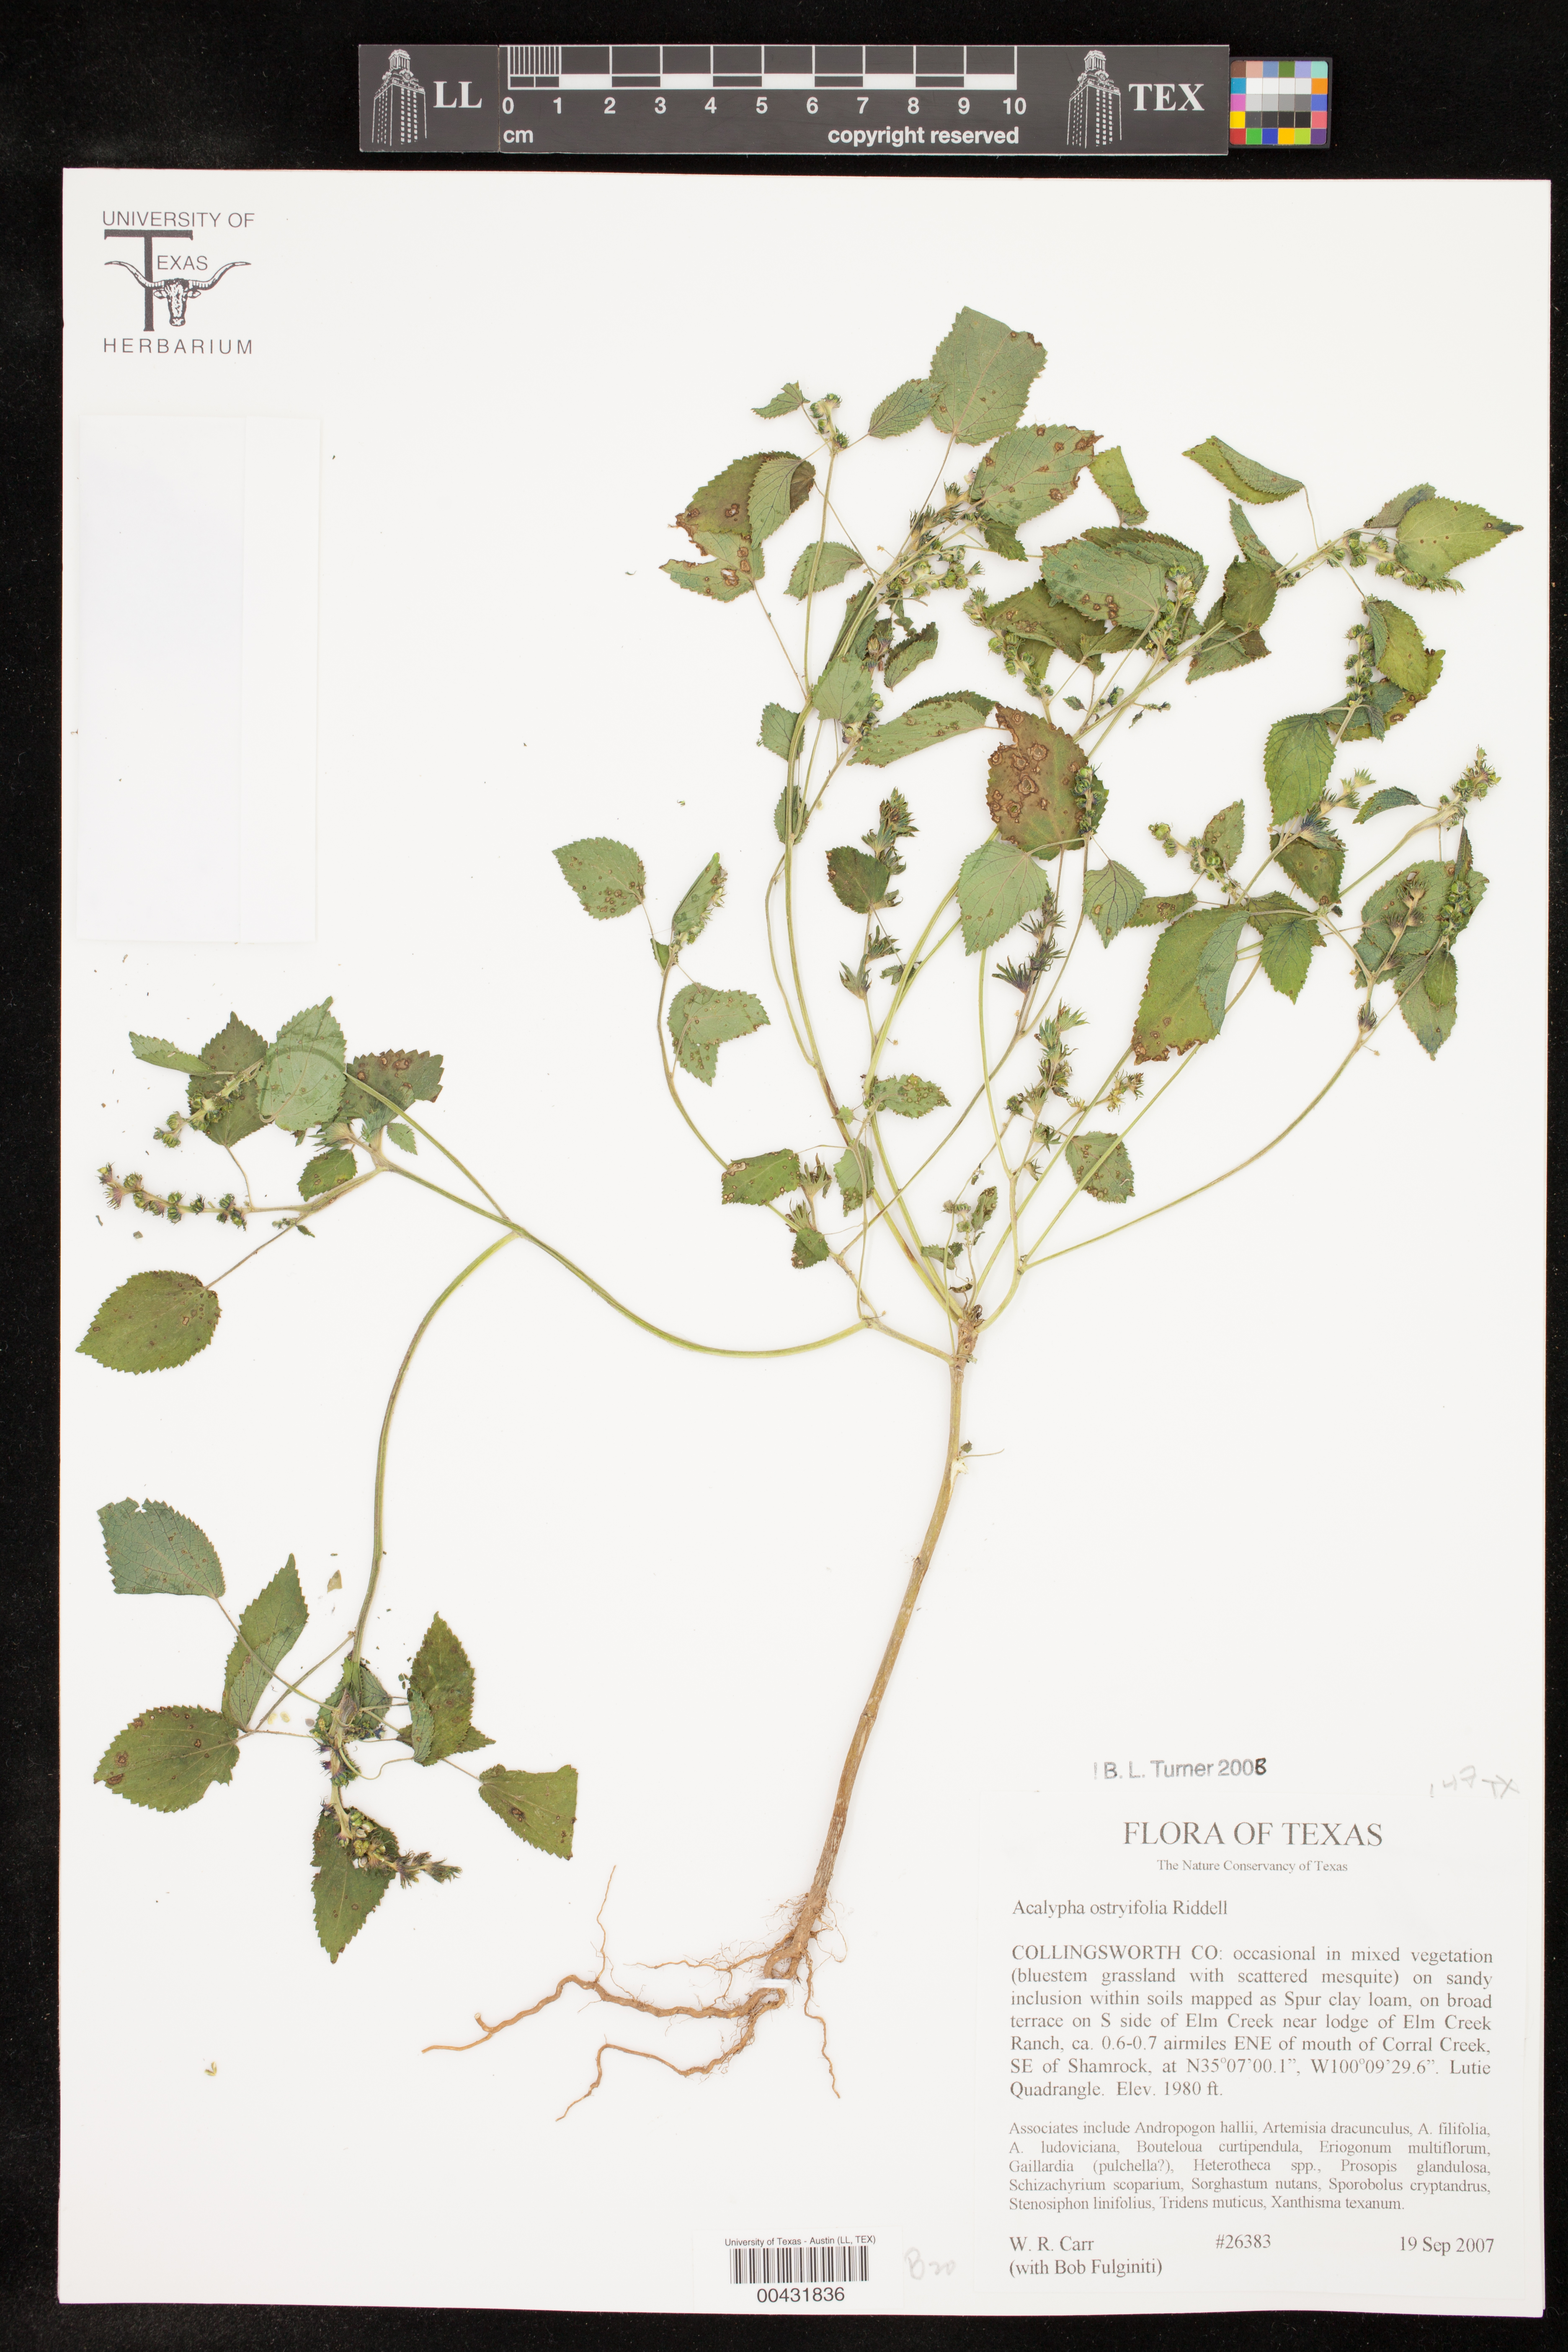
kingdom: Plantae
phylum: Tracheophyta
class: Magnoliopsida
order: Malpighiales
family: Euphorbiaceae
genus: Acalypha
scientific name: Acalypha ostryifolia
